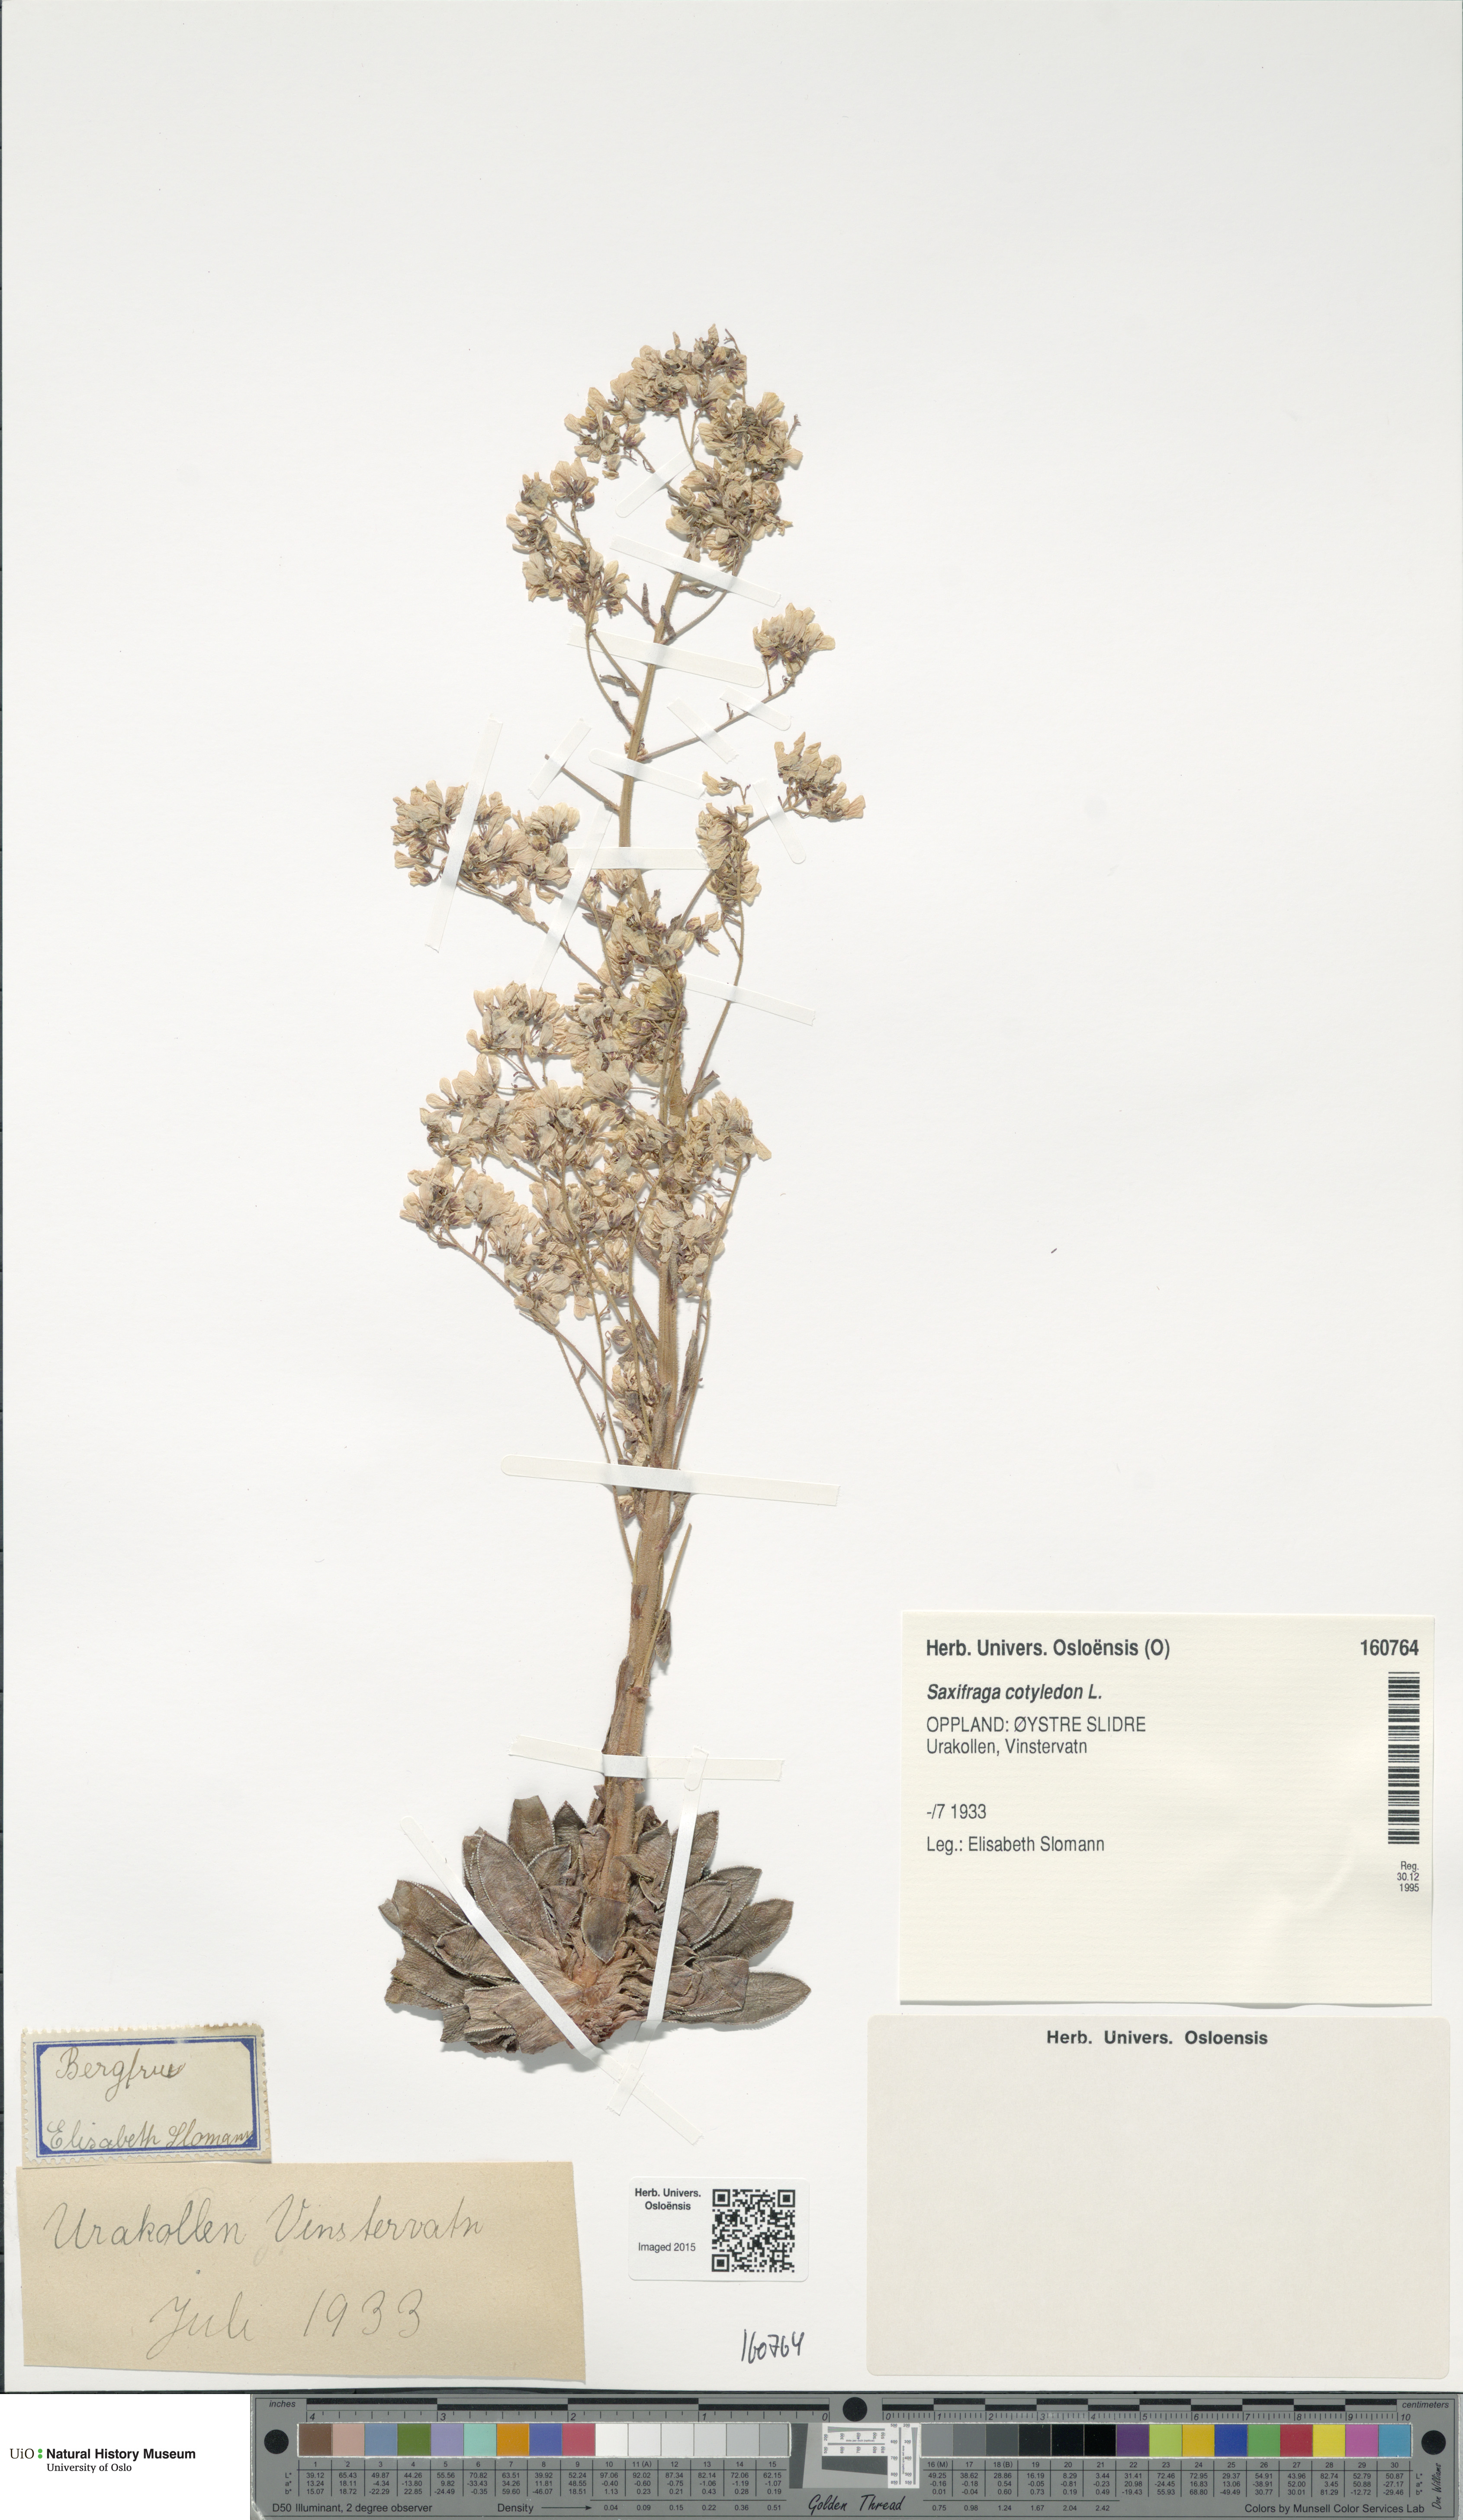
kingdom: Plantae
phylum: Tracheophyta
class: Magnoliopsida
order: Saxifragales
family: Saxifragaceae
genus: Saxifraga
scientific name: Saxifraga cotyledon
